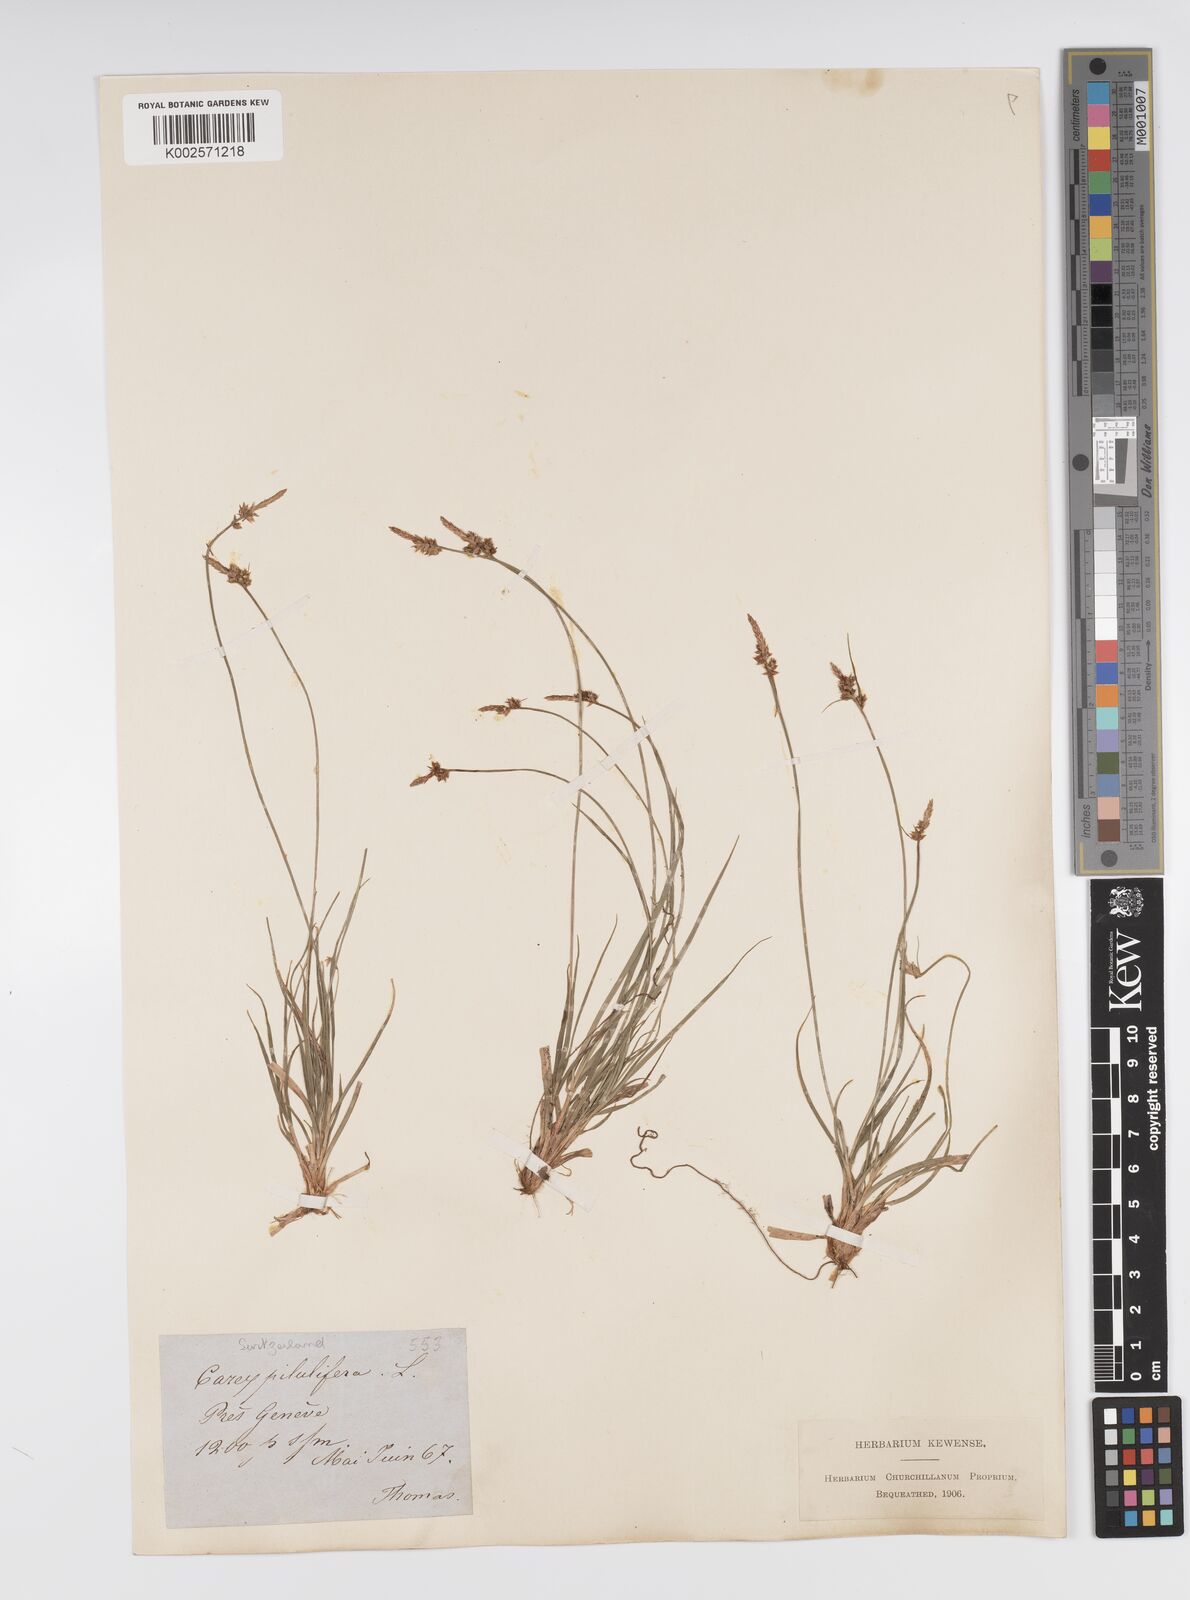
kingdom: Plantae
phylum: Tracheophyta
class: Liliopsida
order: Poales
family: Cyperaceae
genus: Carex
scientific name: Carex pilulifera
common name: Pill sedge
